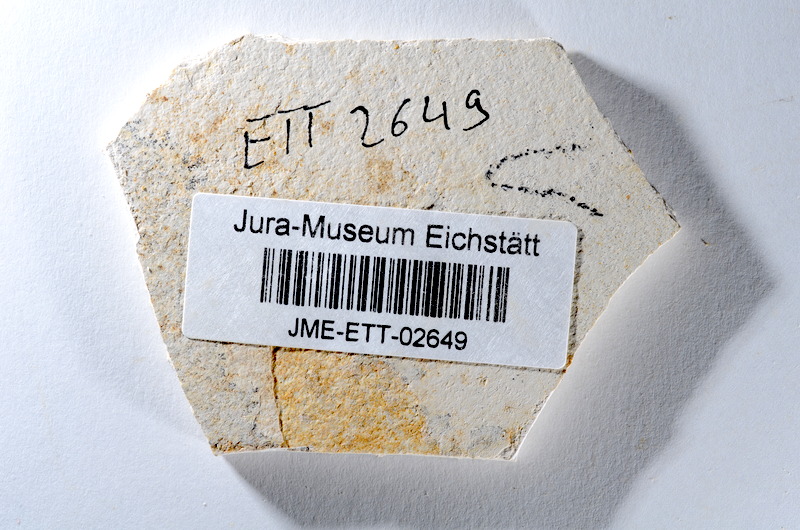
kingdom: Animalia
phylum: Chordata
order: Salmoniformes
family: Orthogonikleithridae
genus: Orthogonikleithrus
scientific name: Orthogonikleithrus hoelli
